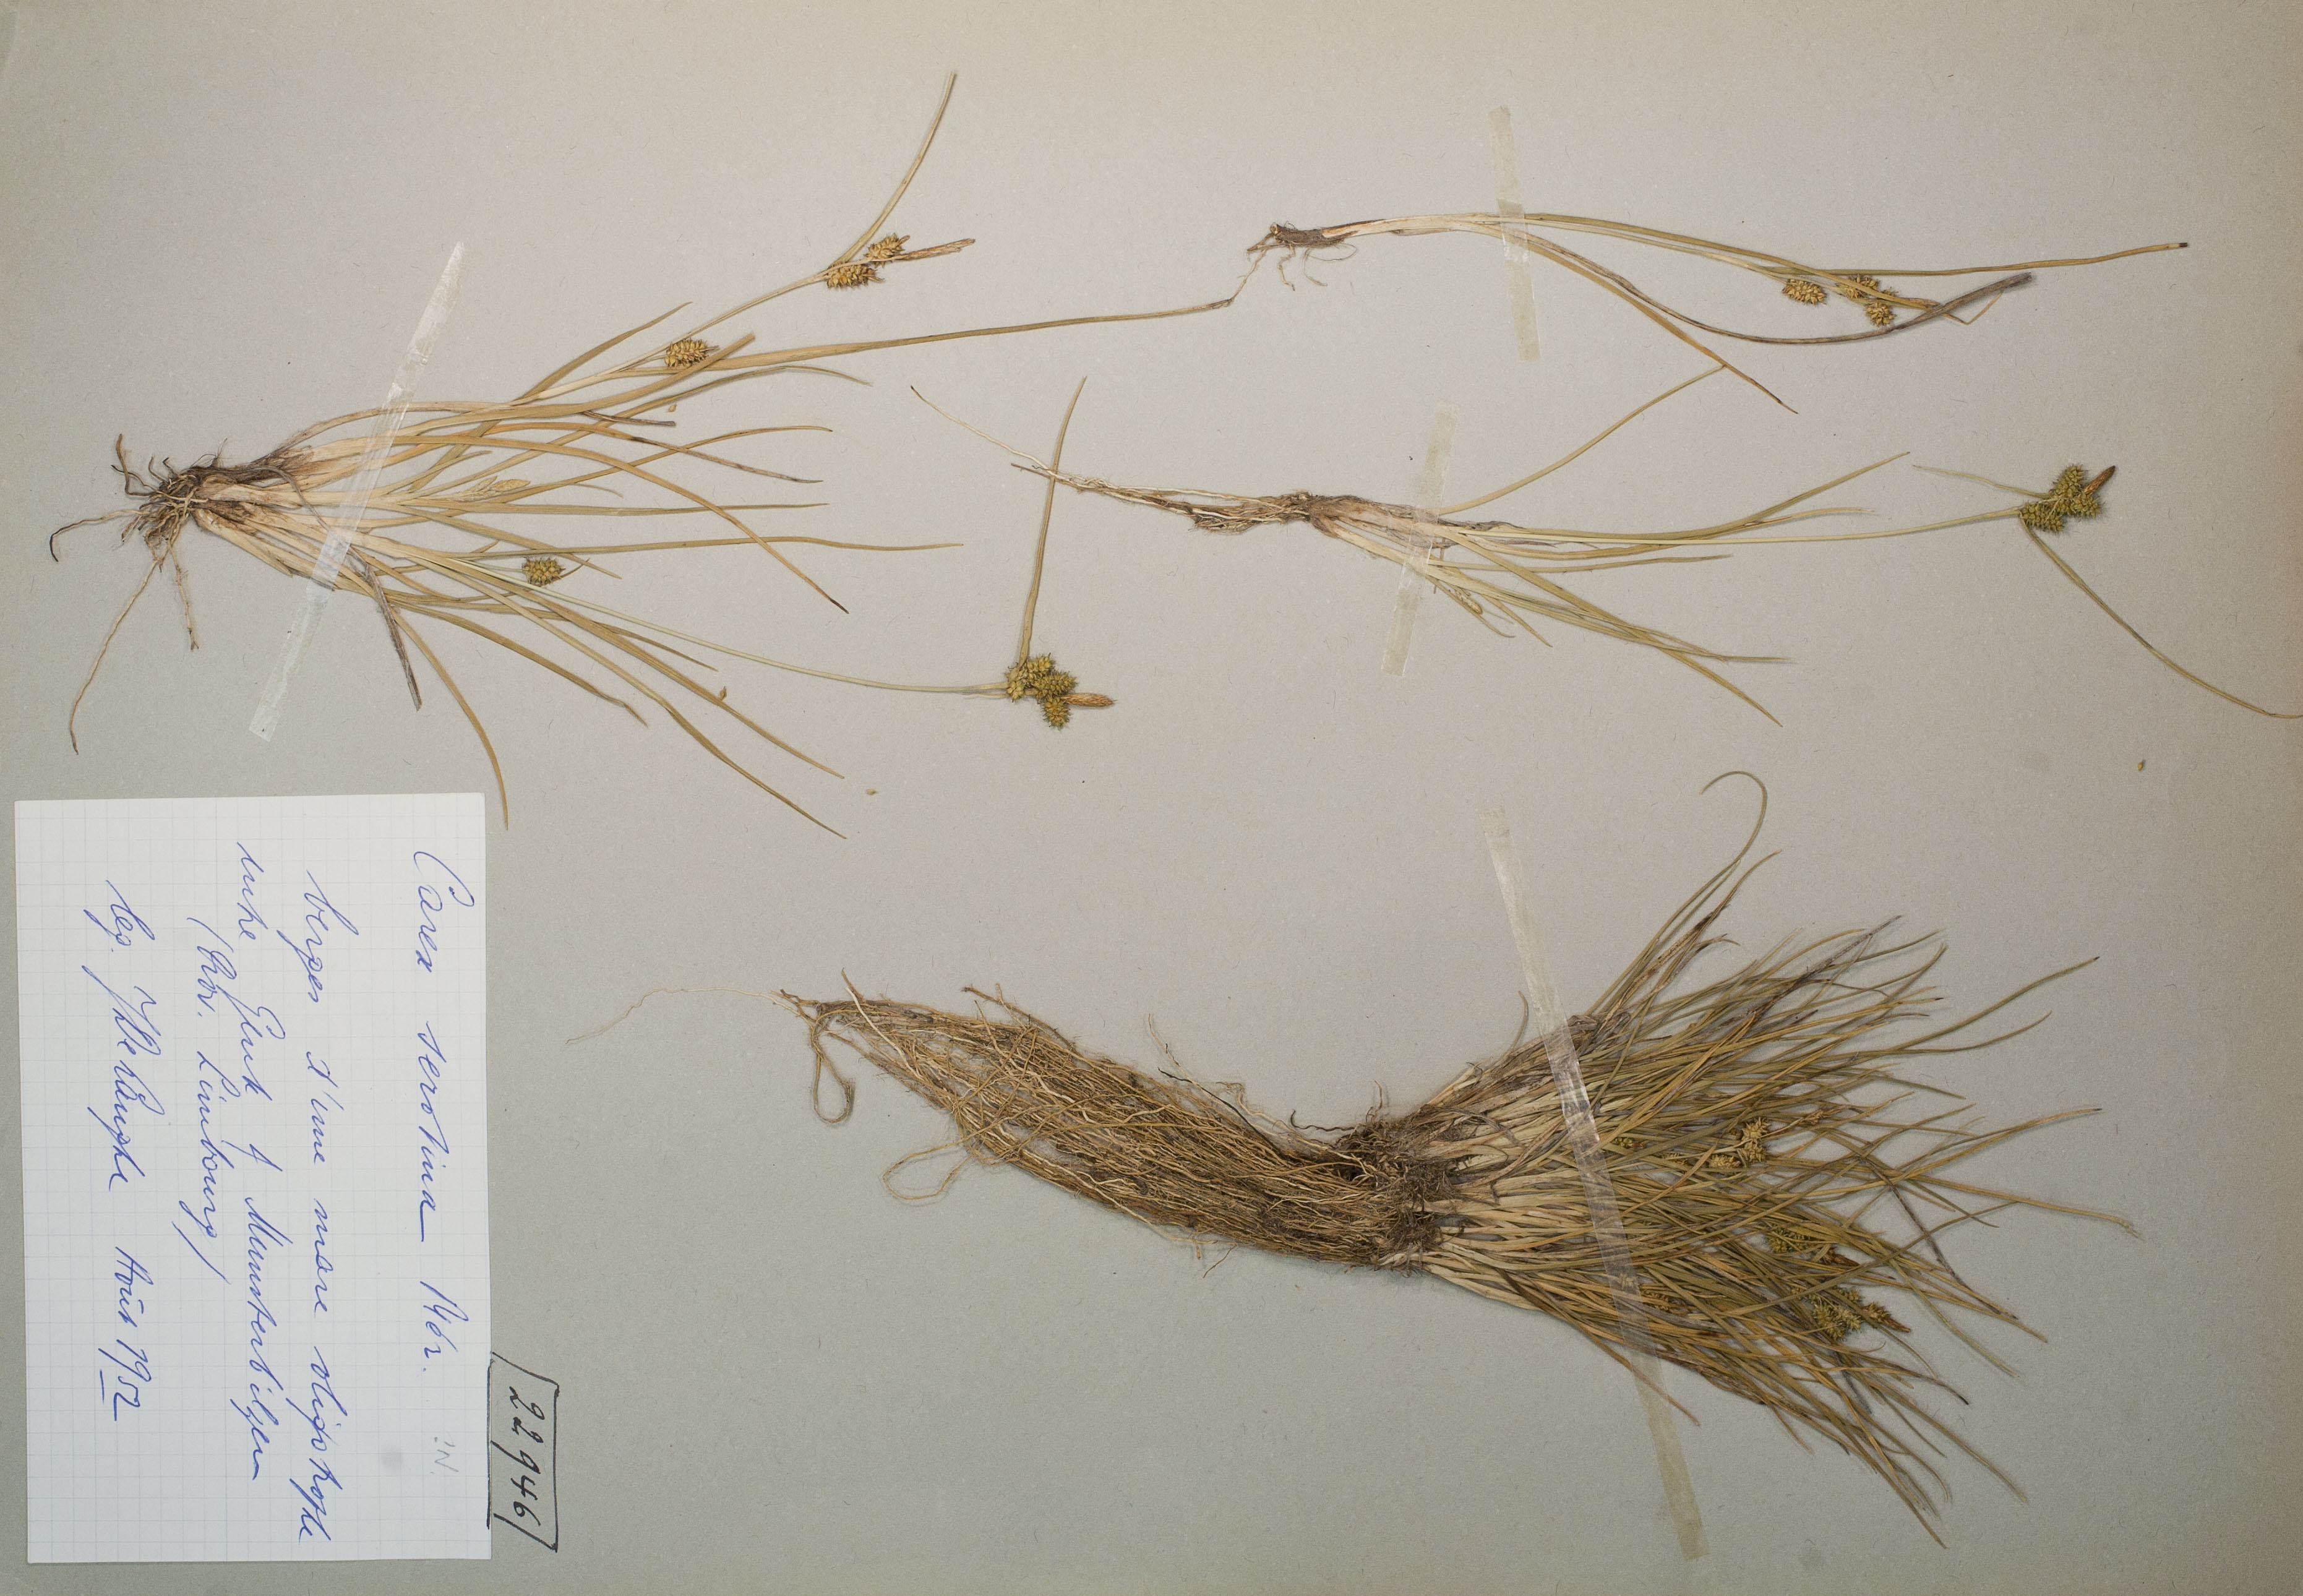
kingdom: Plantae
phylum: Tracheophyta
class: Liliopsida
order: Poales
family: Cyperaceae
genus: Carex
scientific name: Carex oederi
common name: Common & small-fruited yellow-sedge
